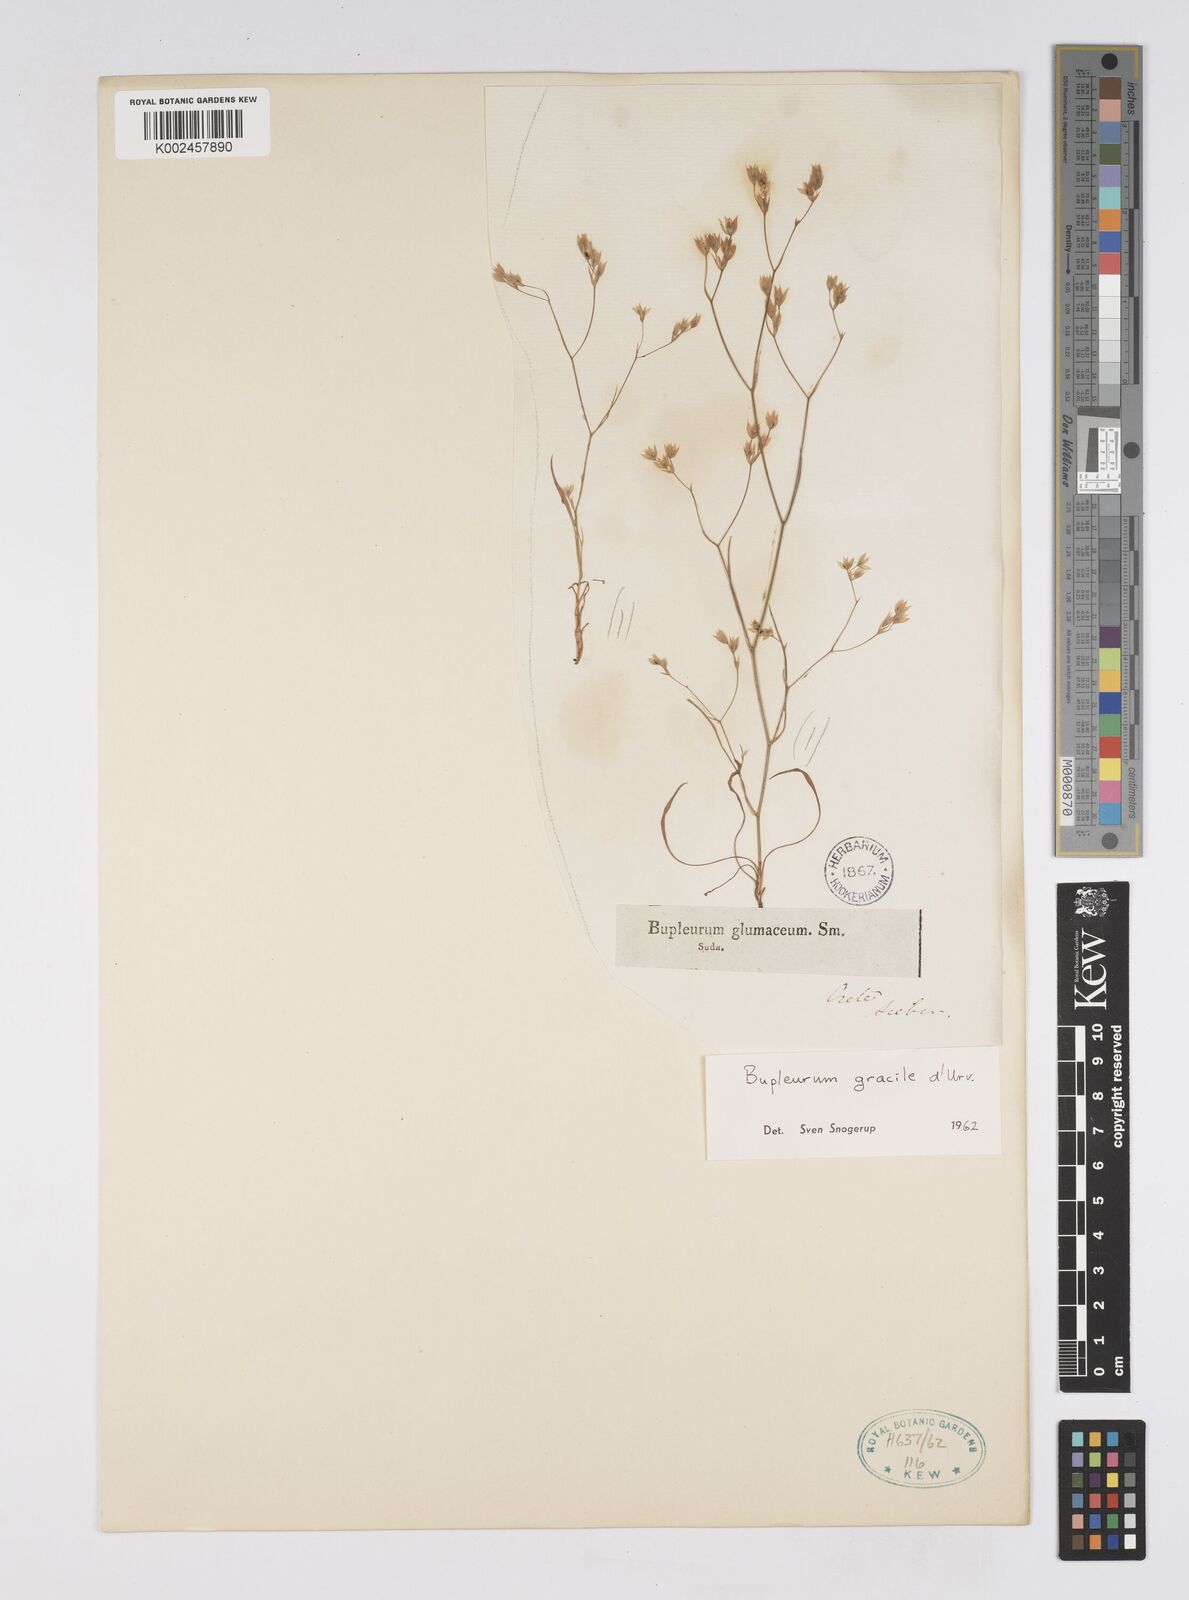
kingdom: Plantae
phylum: Tracheophyta
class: Magnoliopsida
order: Apiales
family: Apiaceae
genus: Bupleurum
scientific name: Bupleurum gracile
